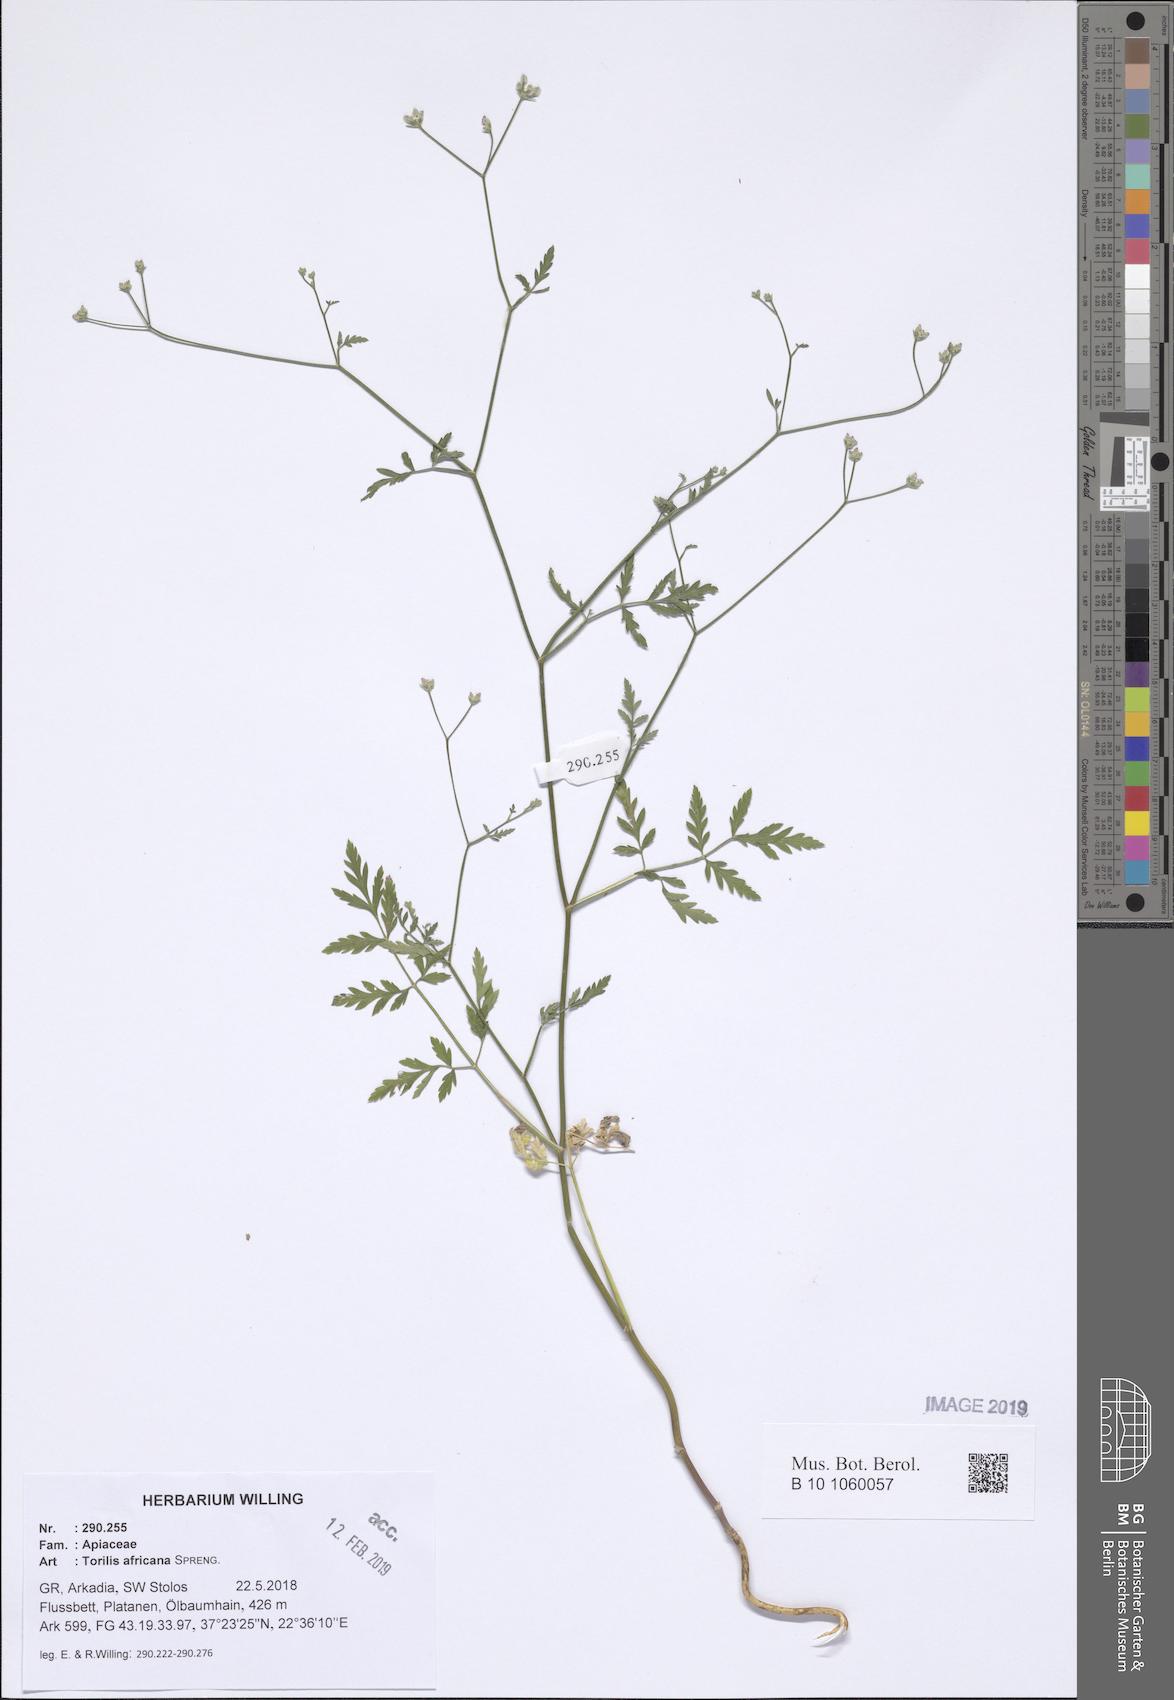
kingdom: Plantae
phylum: Tracheophyta
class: Magnoliopsida
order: Apiales
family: Apiaceae
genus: Torilis
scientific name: Torilis africana
